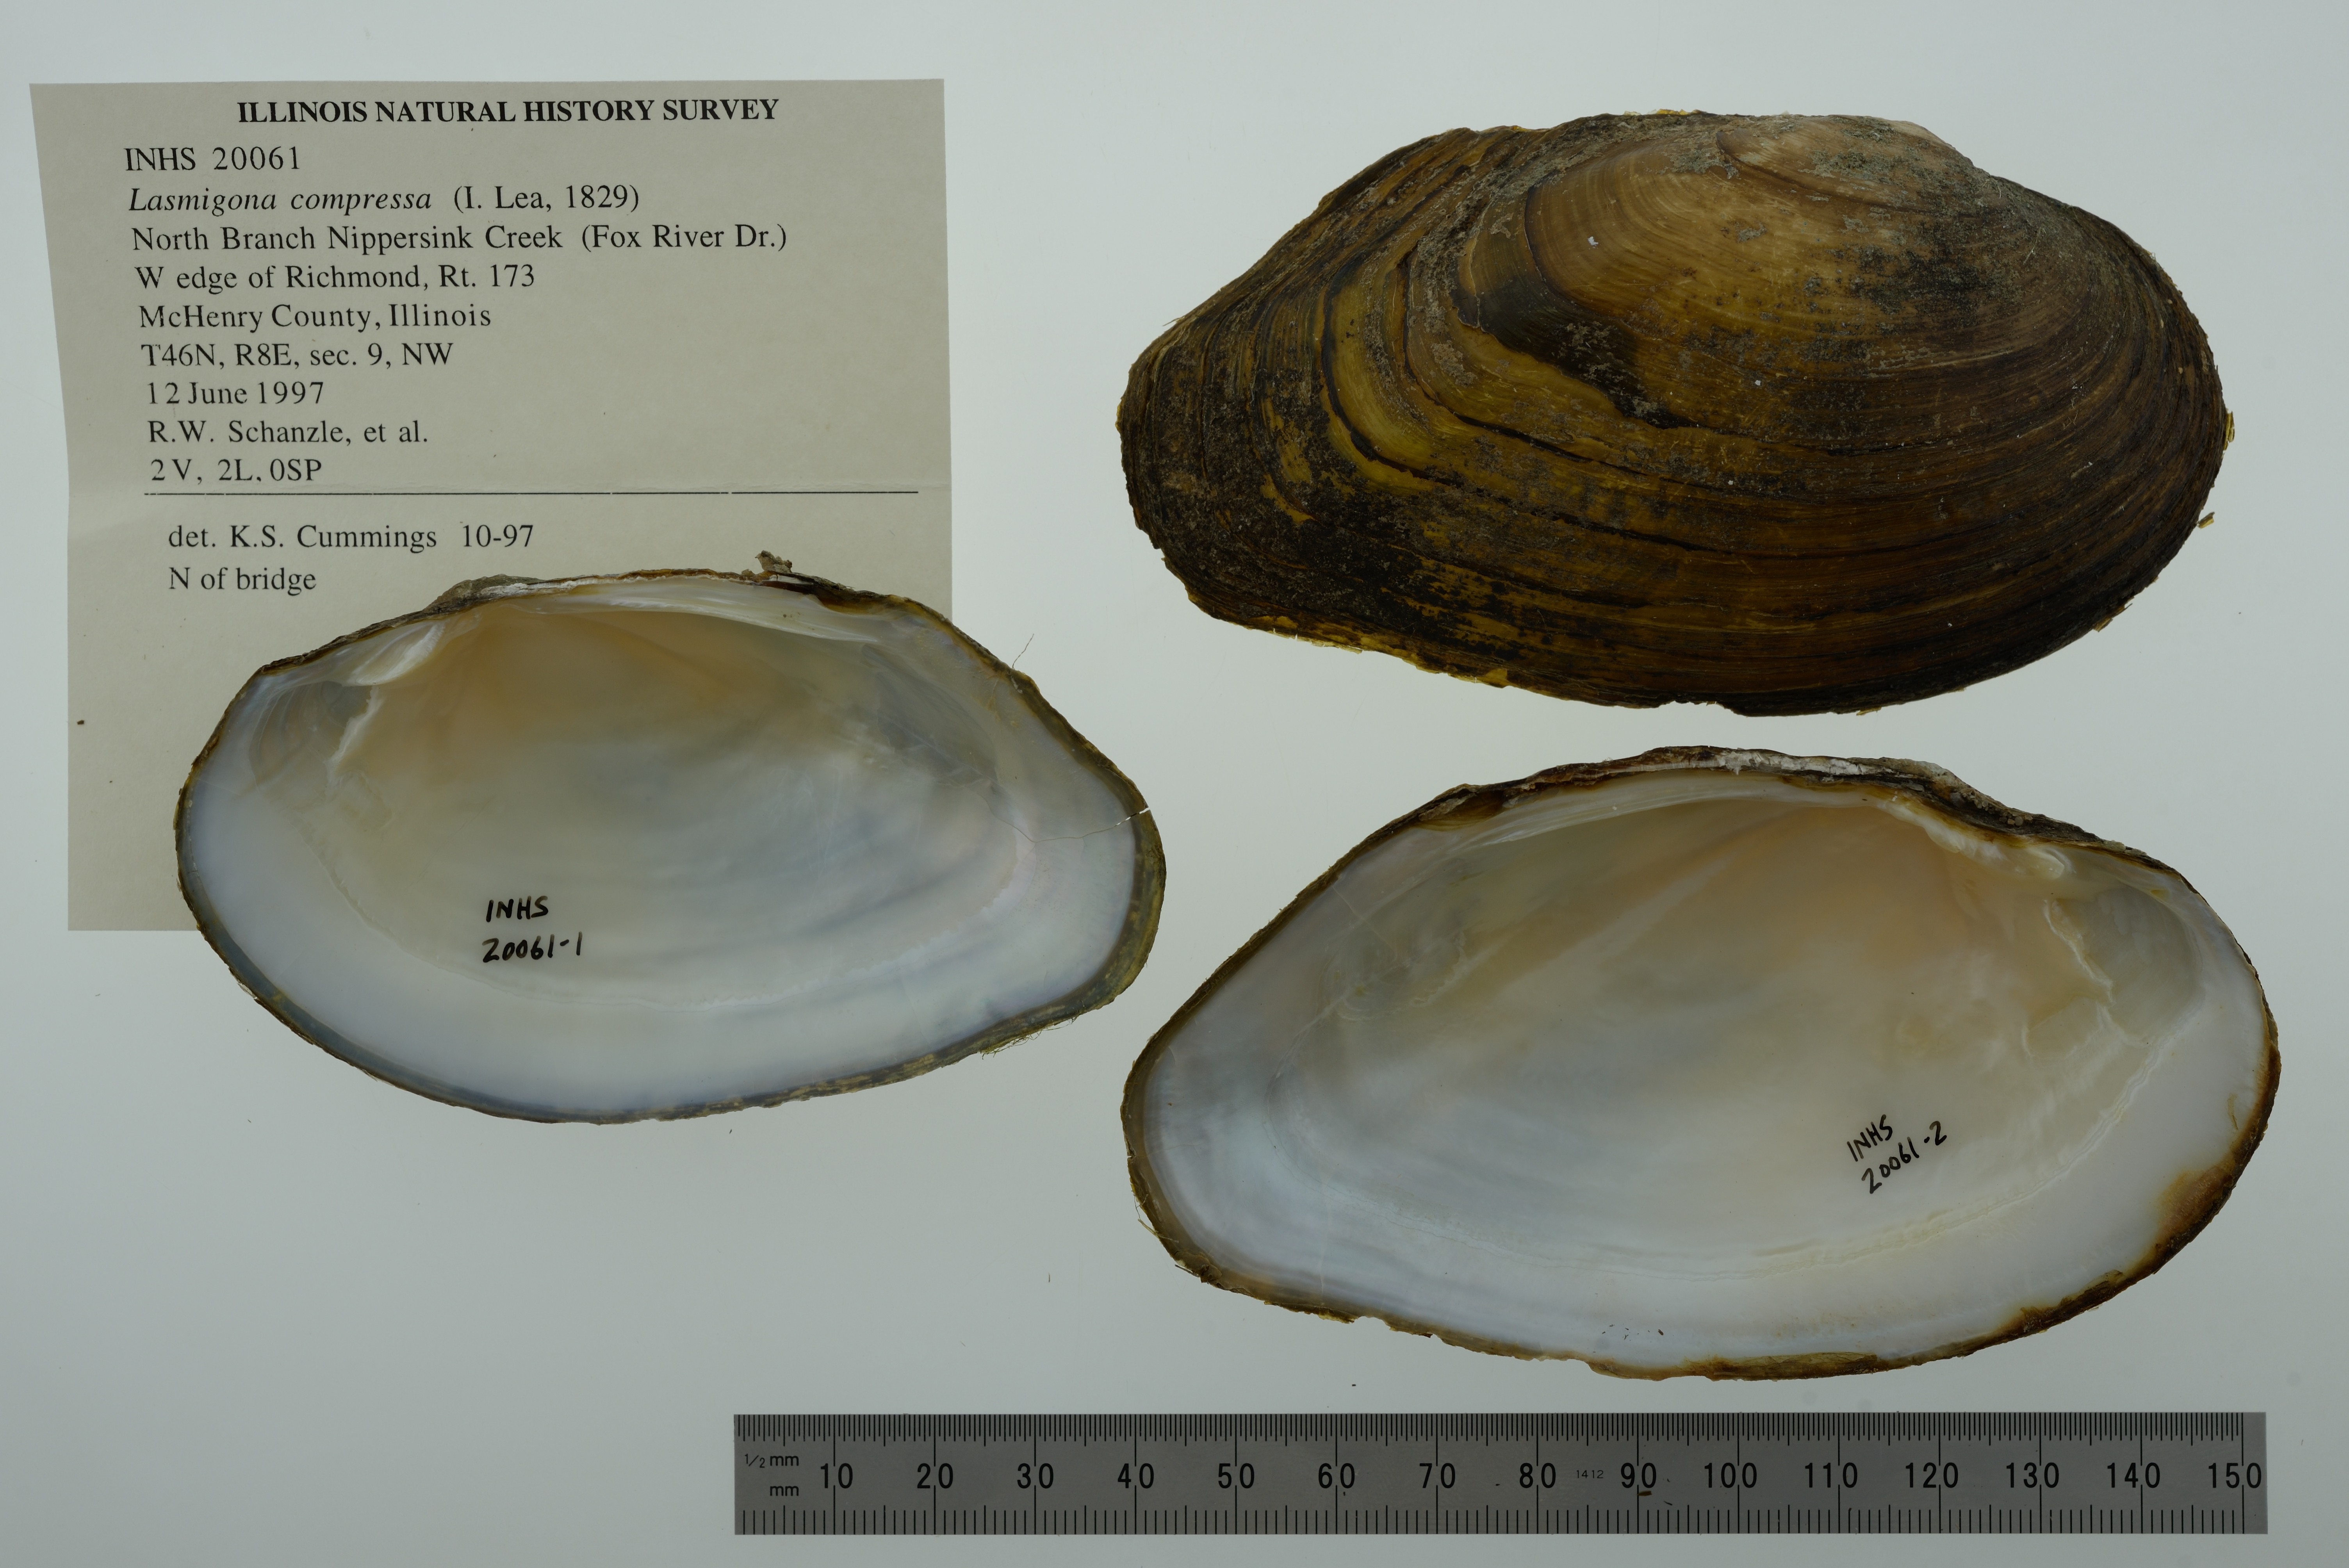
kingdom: Animalia
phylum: Mollusca
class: Bivalvia
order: Unionida
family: Unionidae
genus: Lasmigona
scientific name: Lasmigona compressa
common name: Creek heelsplitter
